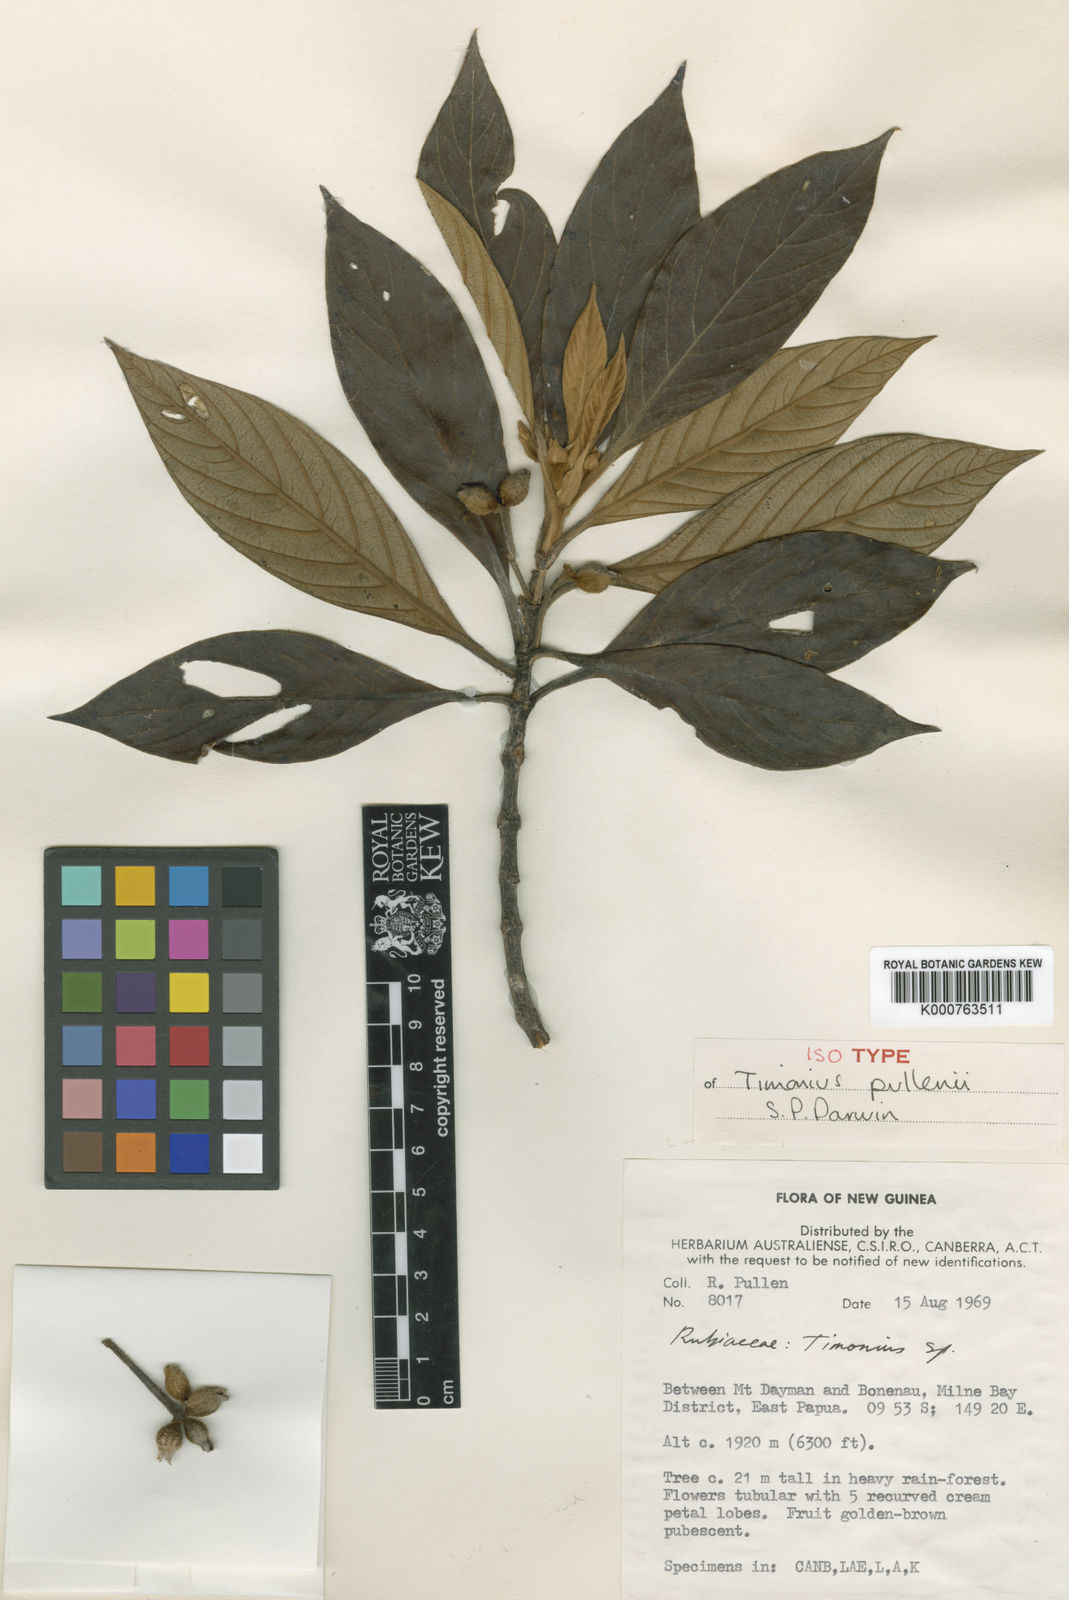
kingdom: Plantae
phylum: Tracheophyta
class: Magnoliopsida
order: Gentianales
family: Rubiaceae
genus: Timonius
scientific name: Timonius pullenii
